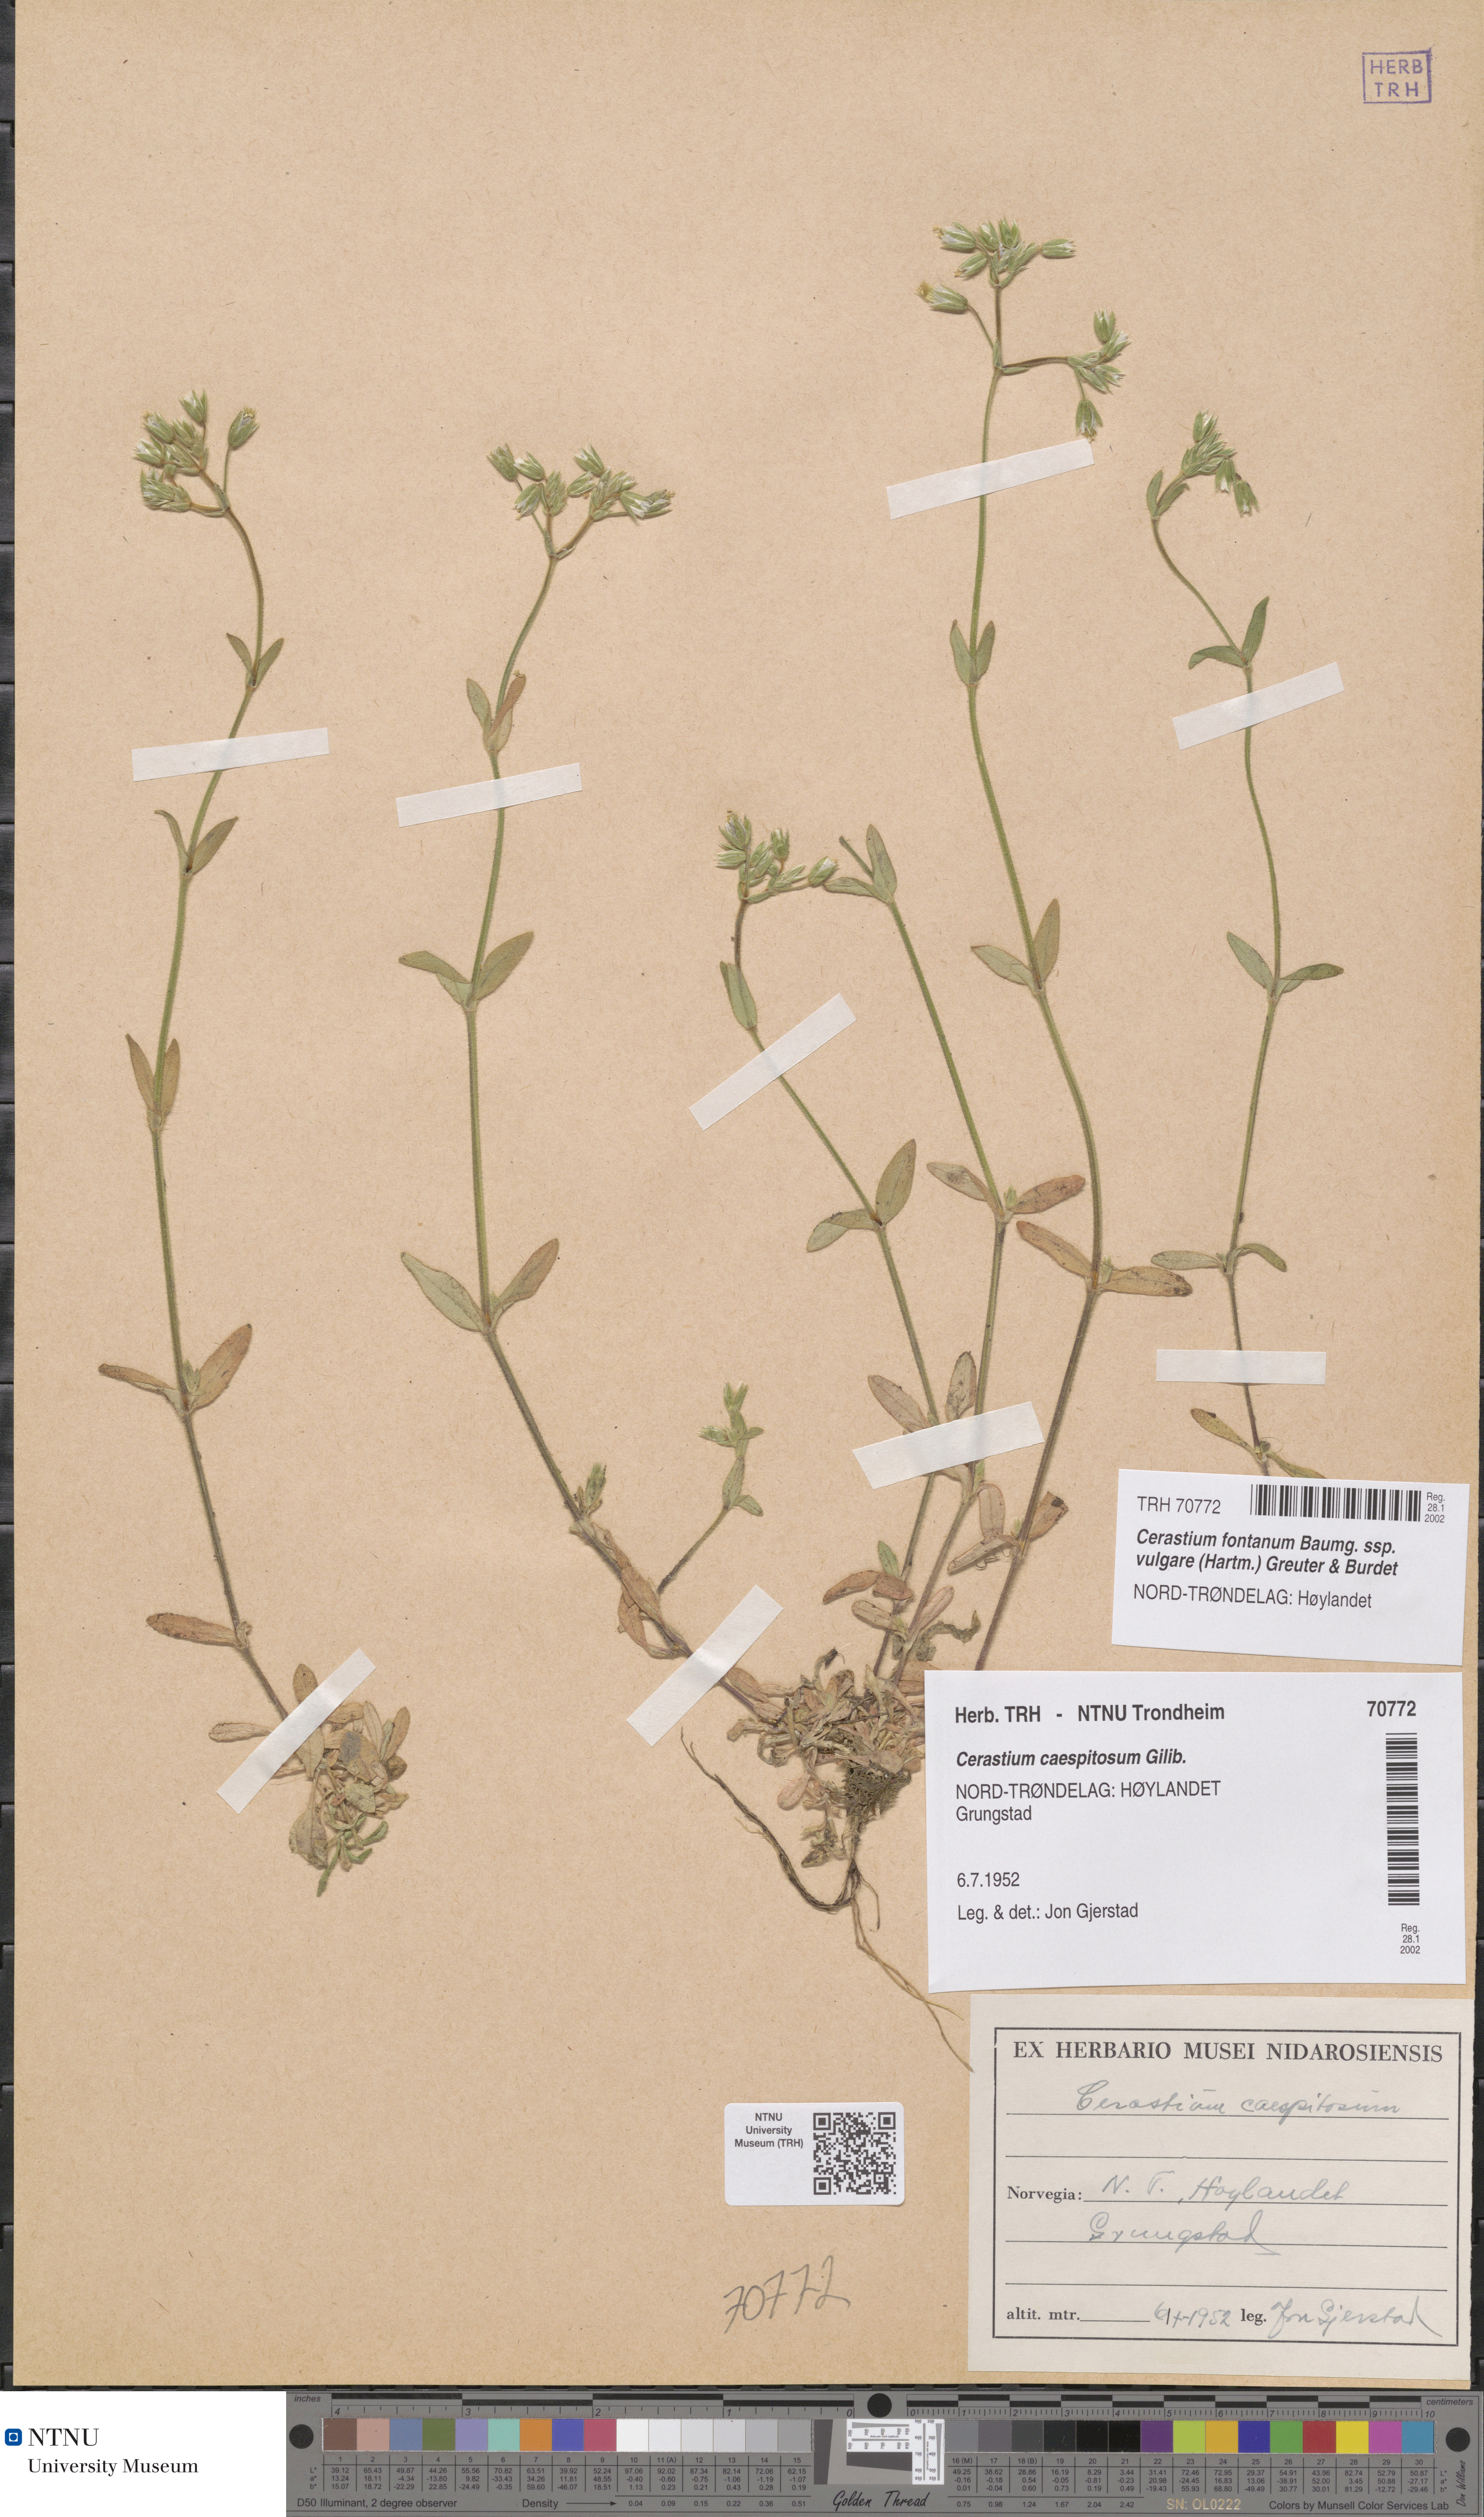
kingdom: Plantae
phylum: Tracheophyta
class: Magnoliopsida
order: Caryophyllales
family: Caryophyllaceae
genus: Cerastium
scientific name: Cerastium holosteoides
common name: Big chickweed
